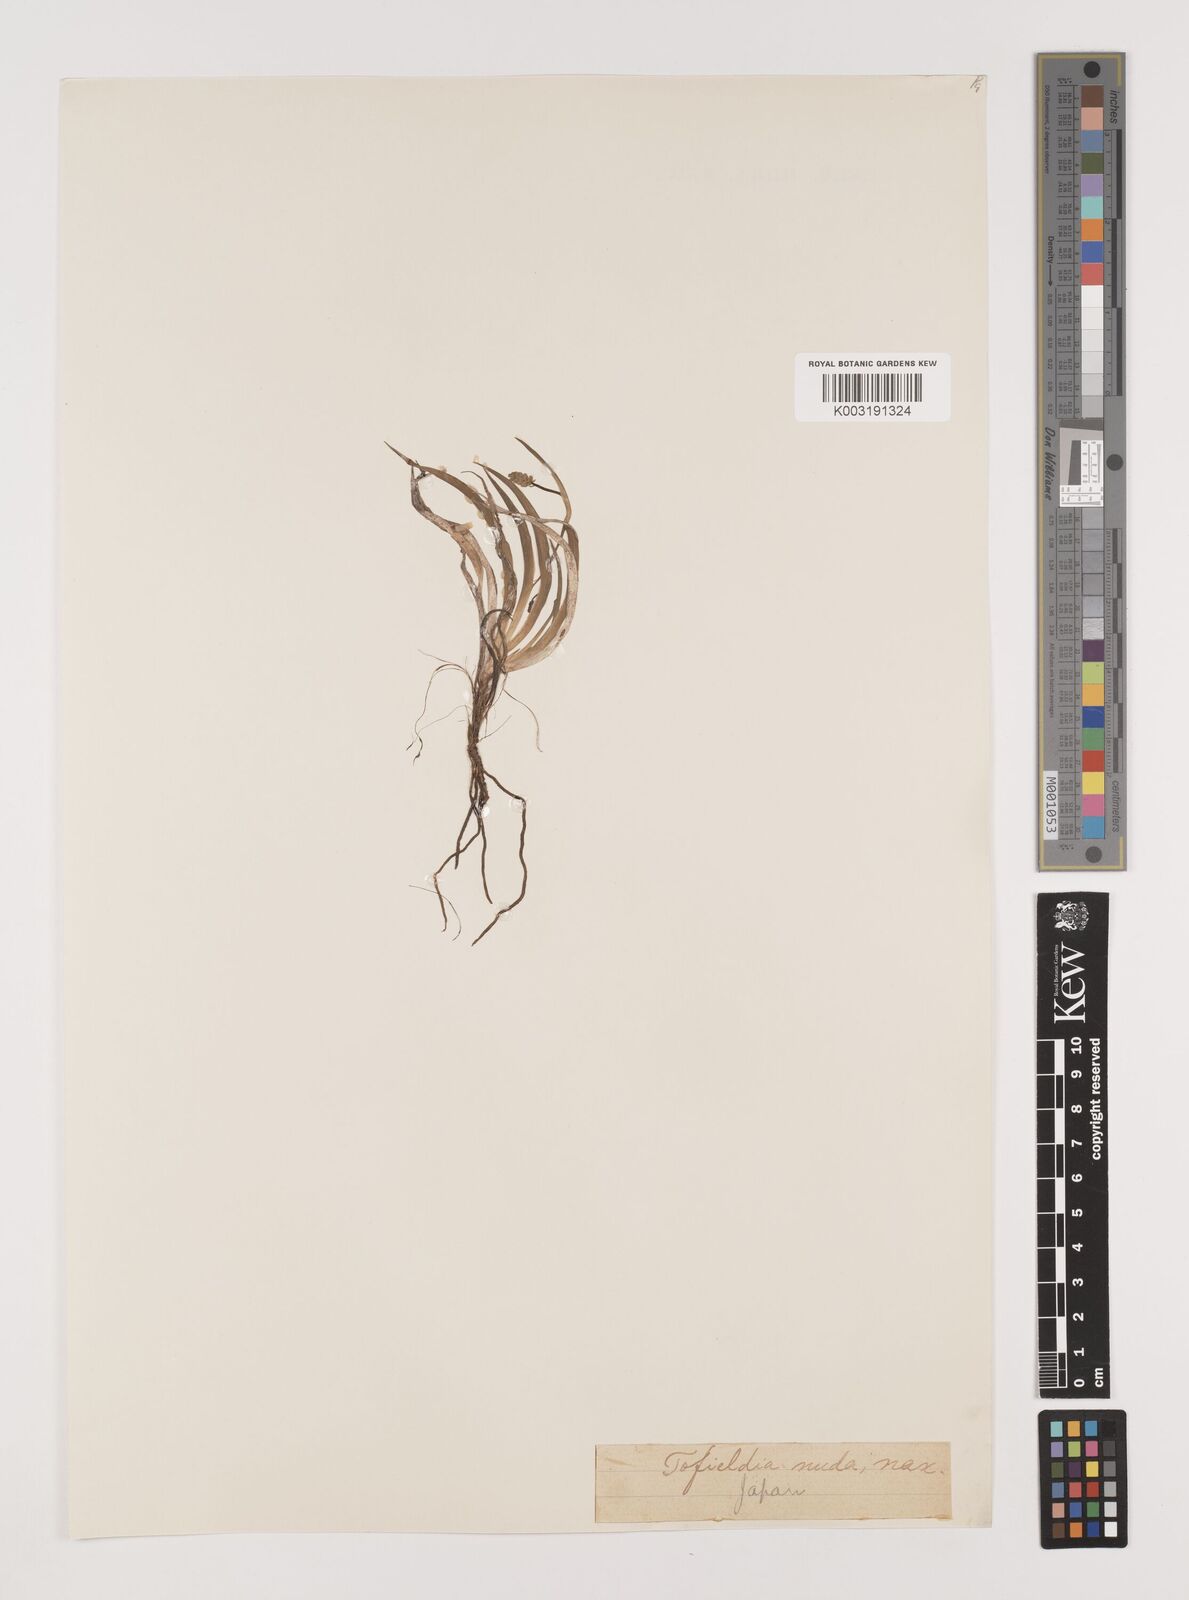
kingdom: Plantae
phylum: Tracheophyta
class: Liliopsida
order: Alismatales
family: Tofieldiaceae
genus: Tofieldia
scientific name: Tofieldia nuda
